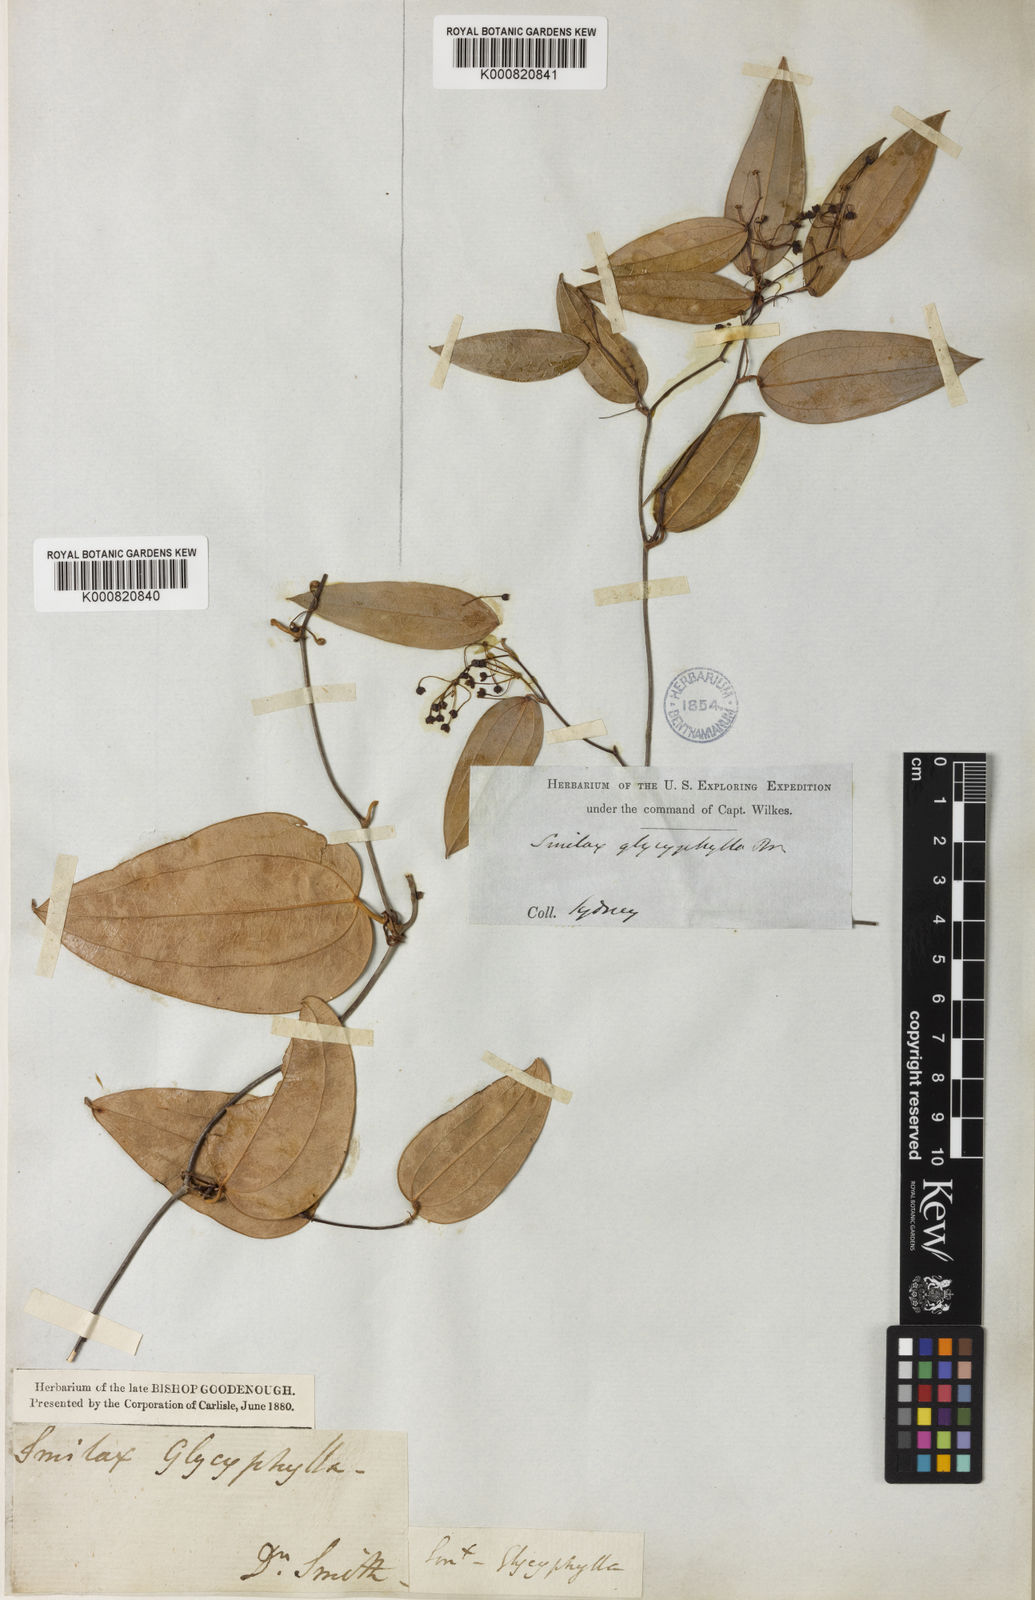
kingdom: Plantae
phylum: Tracheophyta
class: Liliopsida
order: Asparagales
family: Asphodelaceae
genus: Johnsonia
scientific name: Johnsonia acaulis
